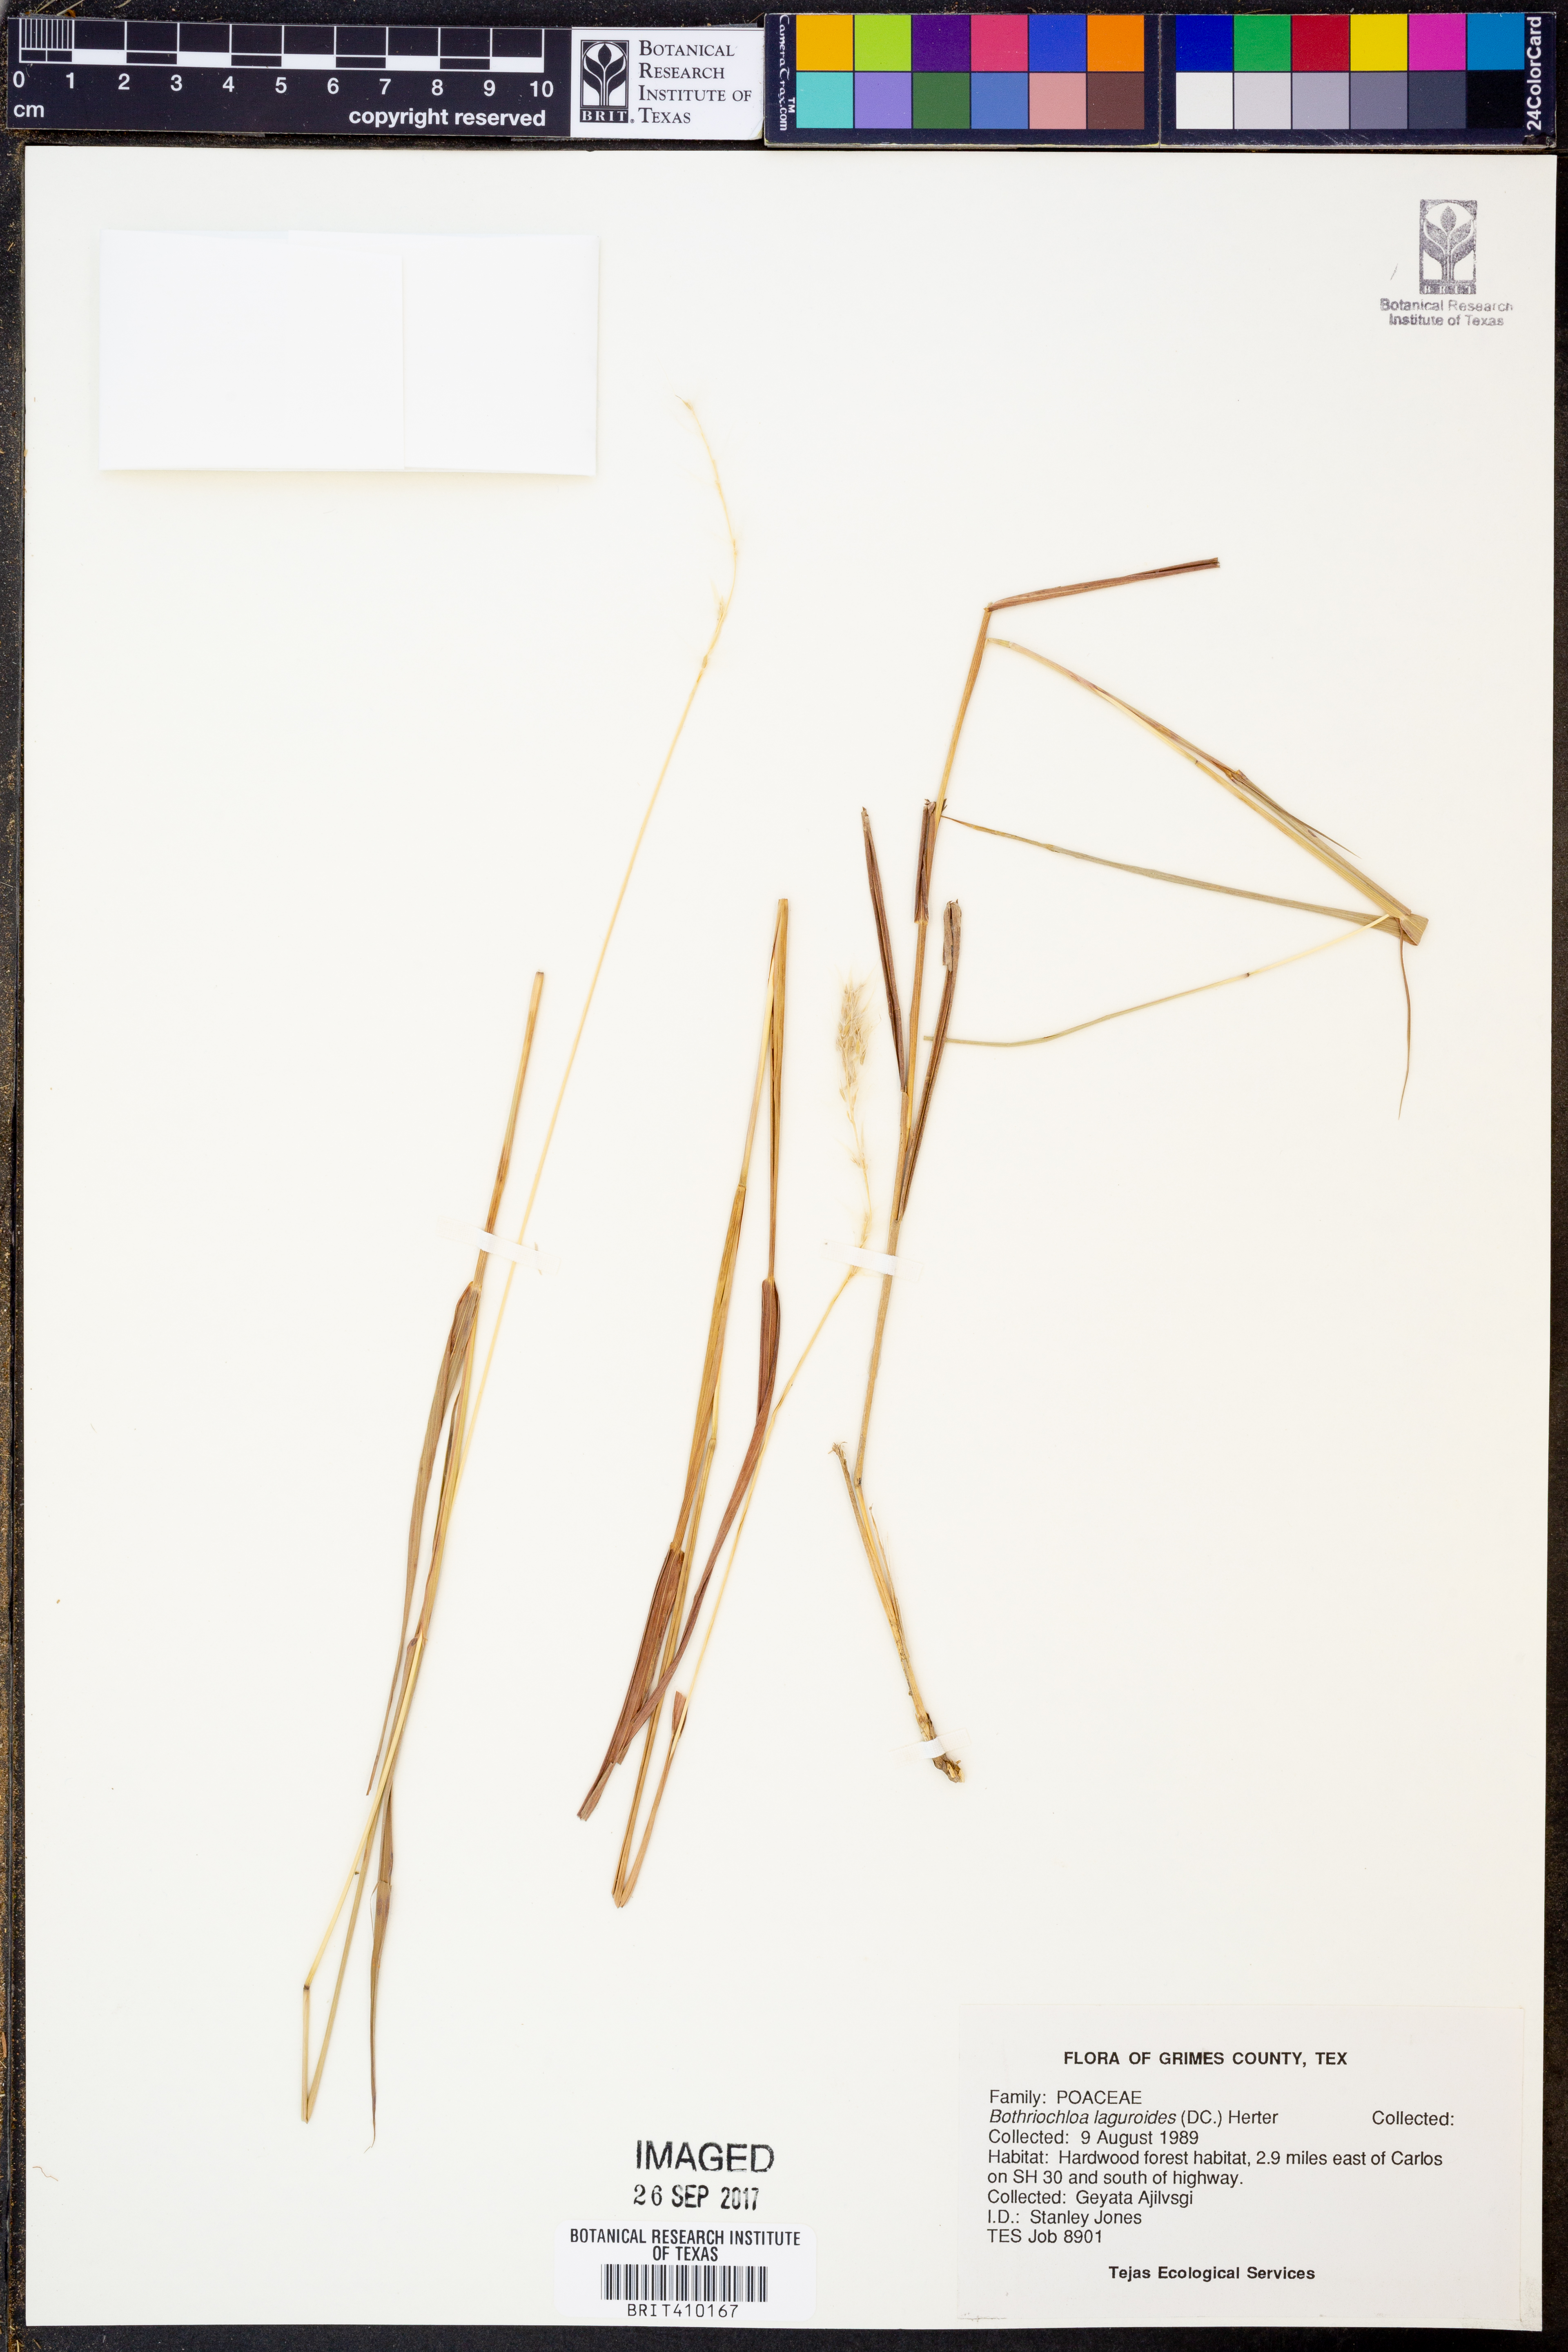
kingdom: Plantae
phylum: Tracheophyta
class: Liliopsida
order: Poales
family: Poaceae
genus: Bothriochloa
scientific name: Bothriochloa laguroides
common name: Silver bluestem
